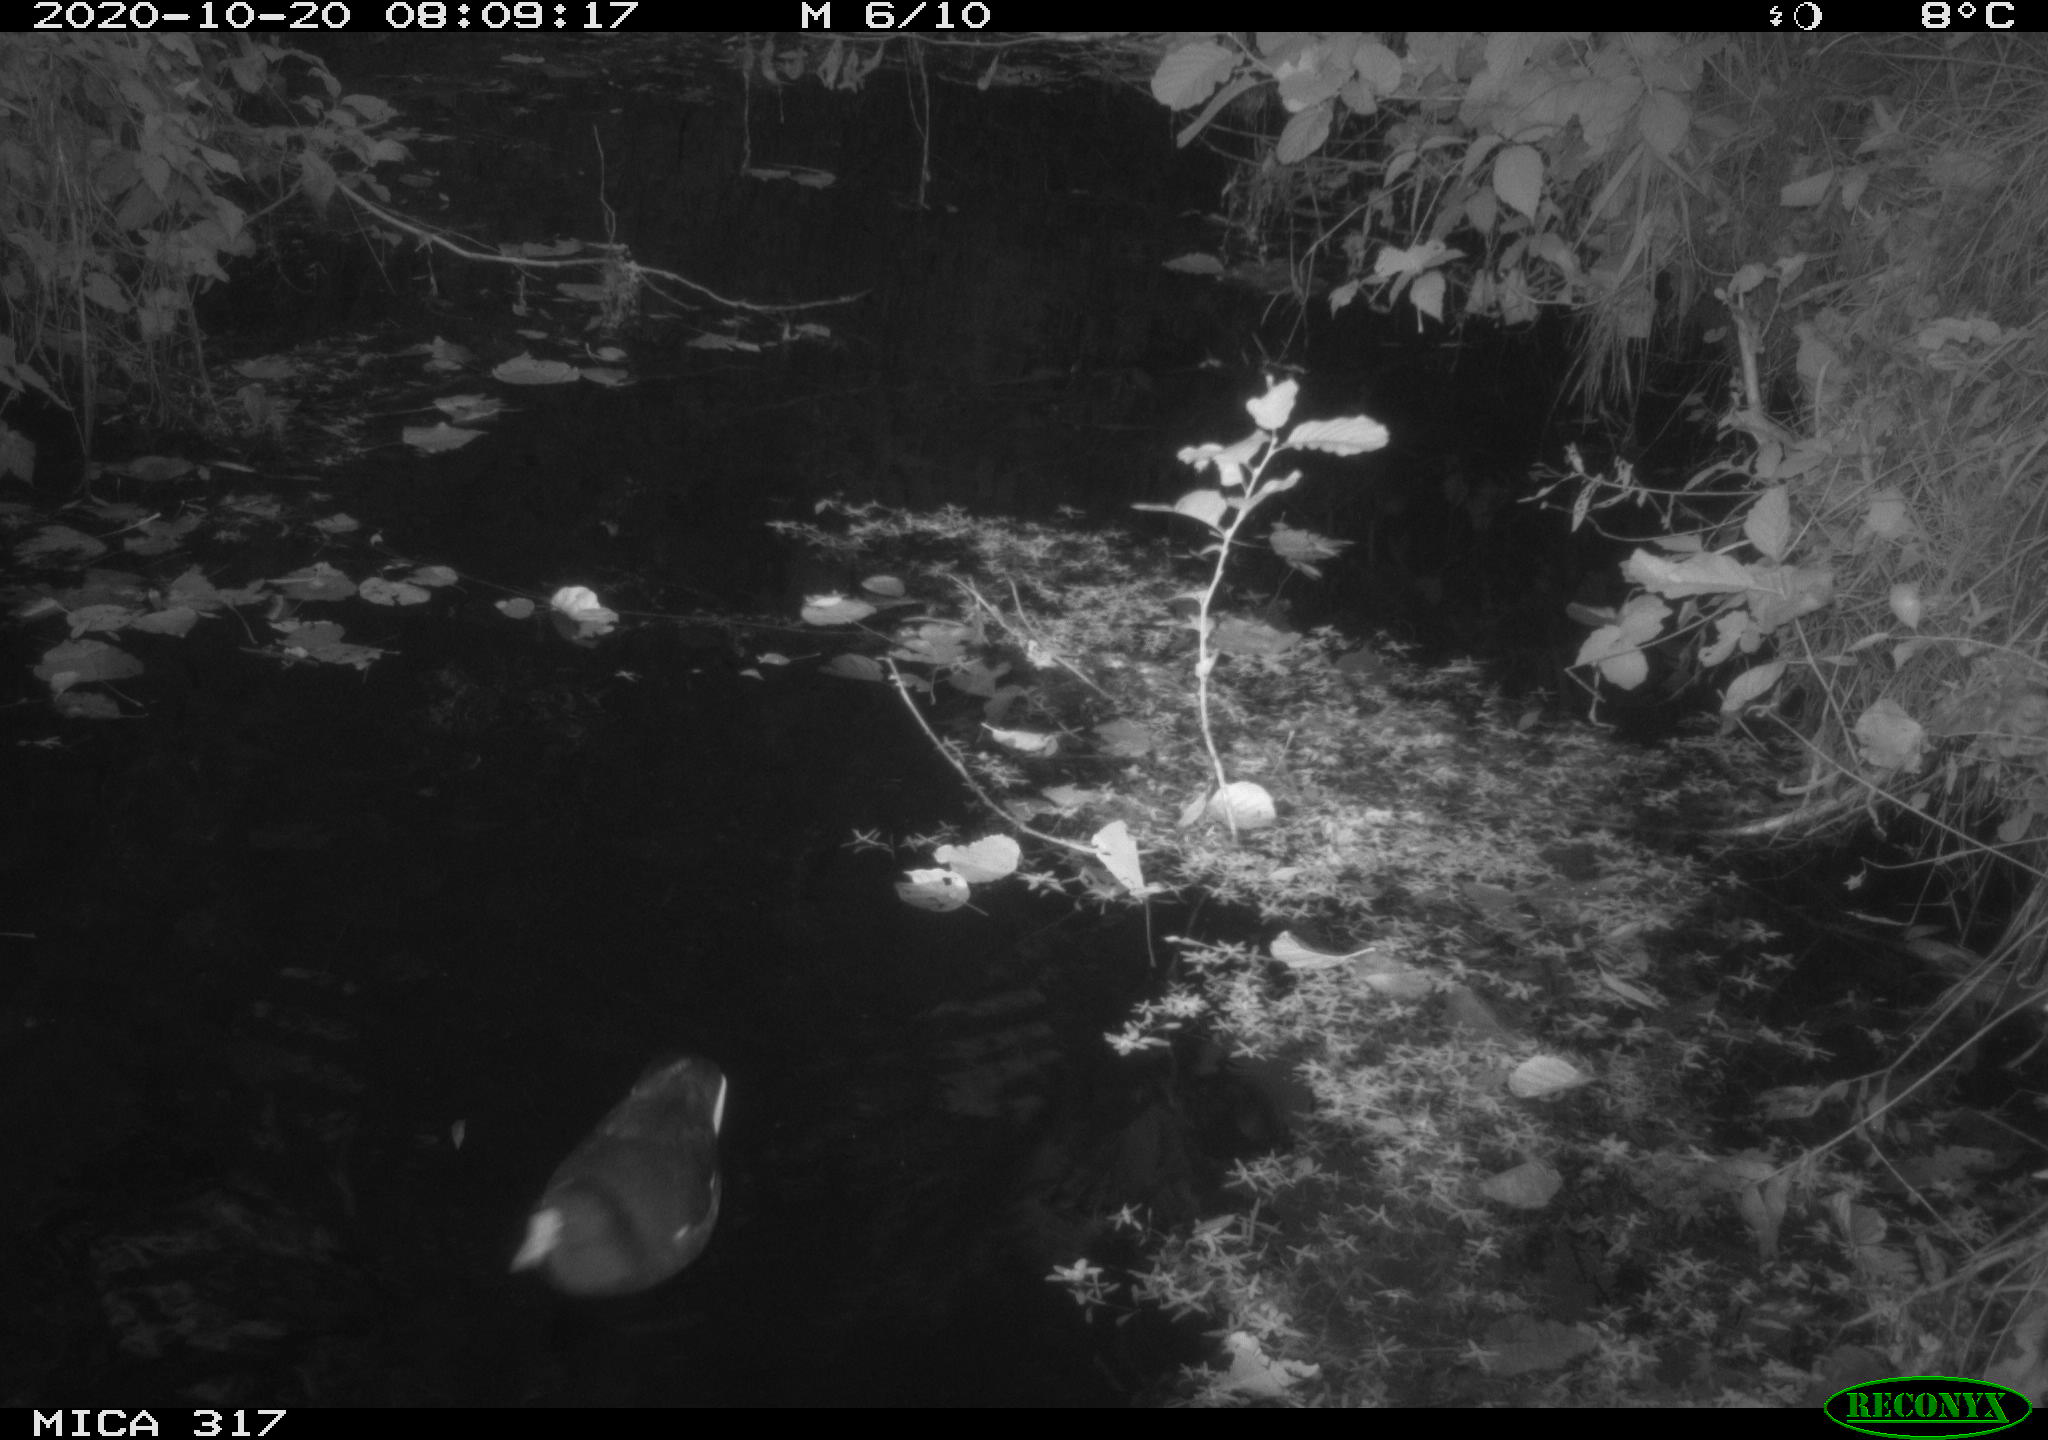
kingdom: Animalia
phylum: Chordata
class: Aves
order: Gruiformes
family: Rallidae
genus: Gallinula
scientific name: Gallinula chloropus
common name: Common moorhen
